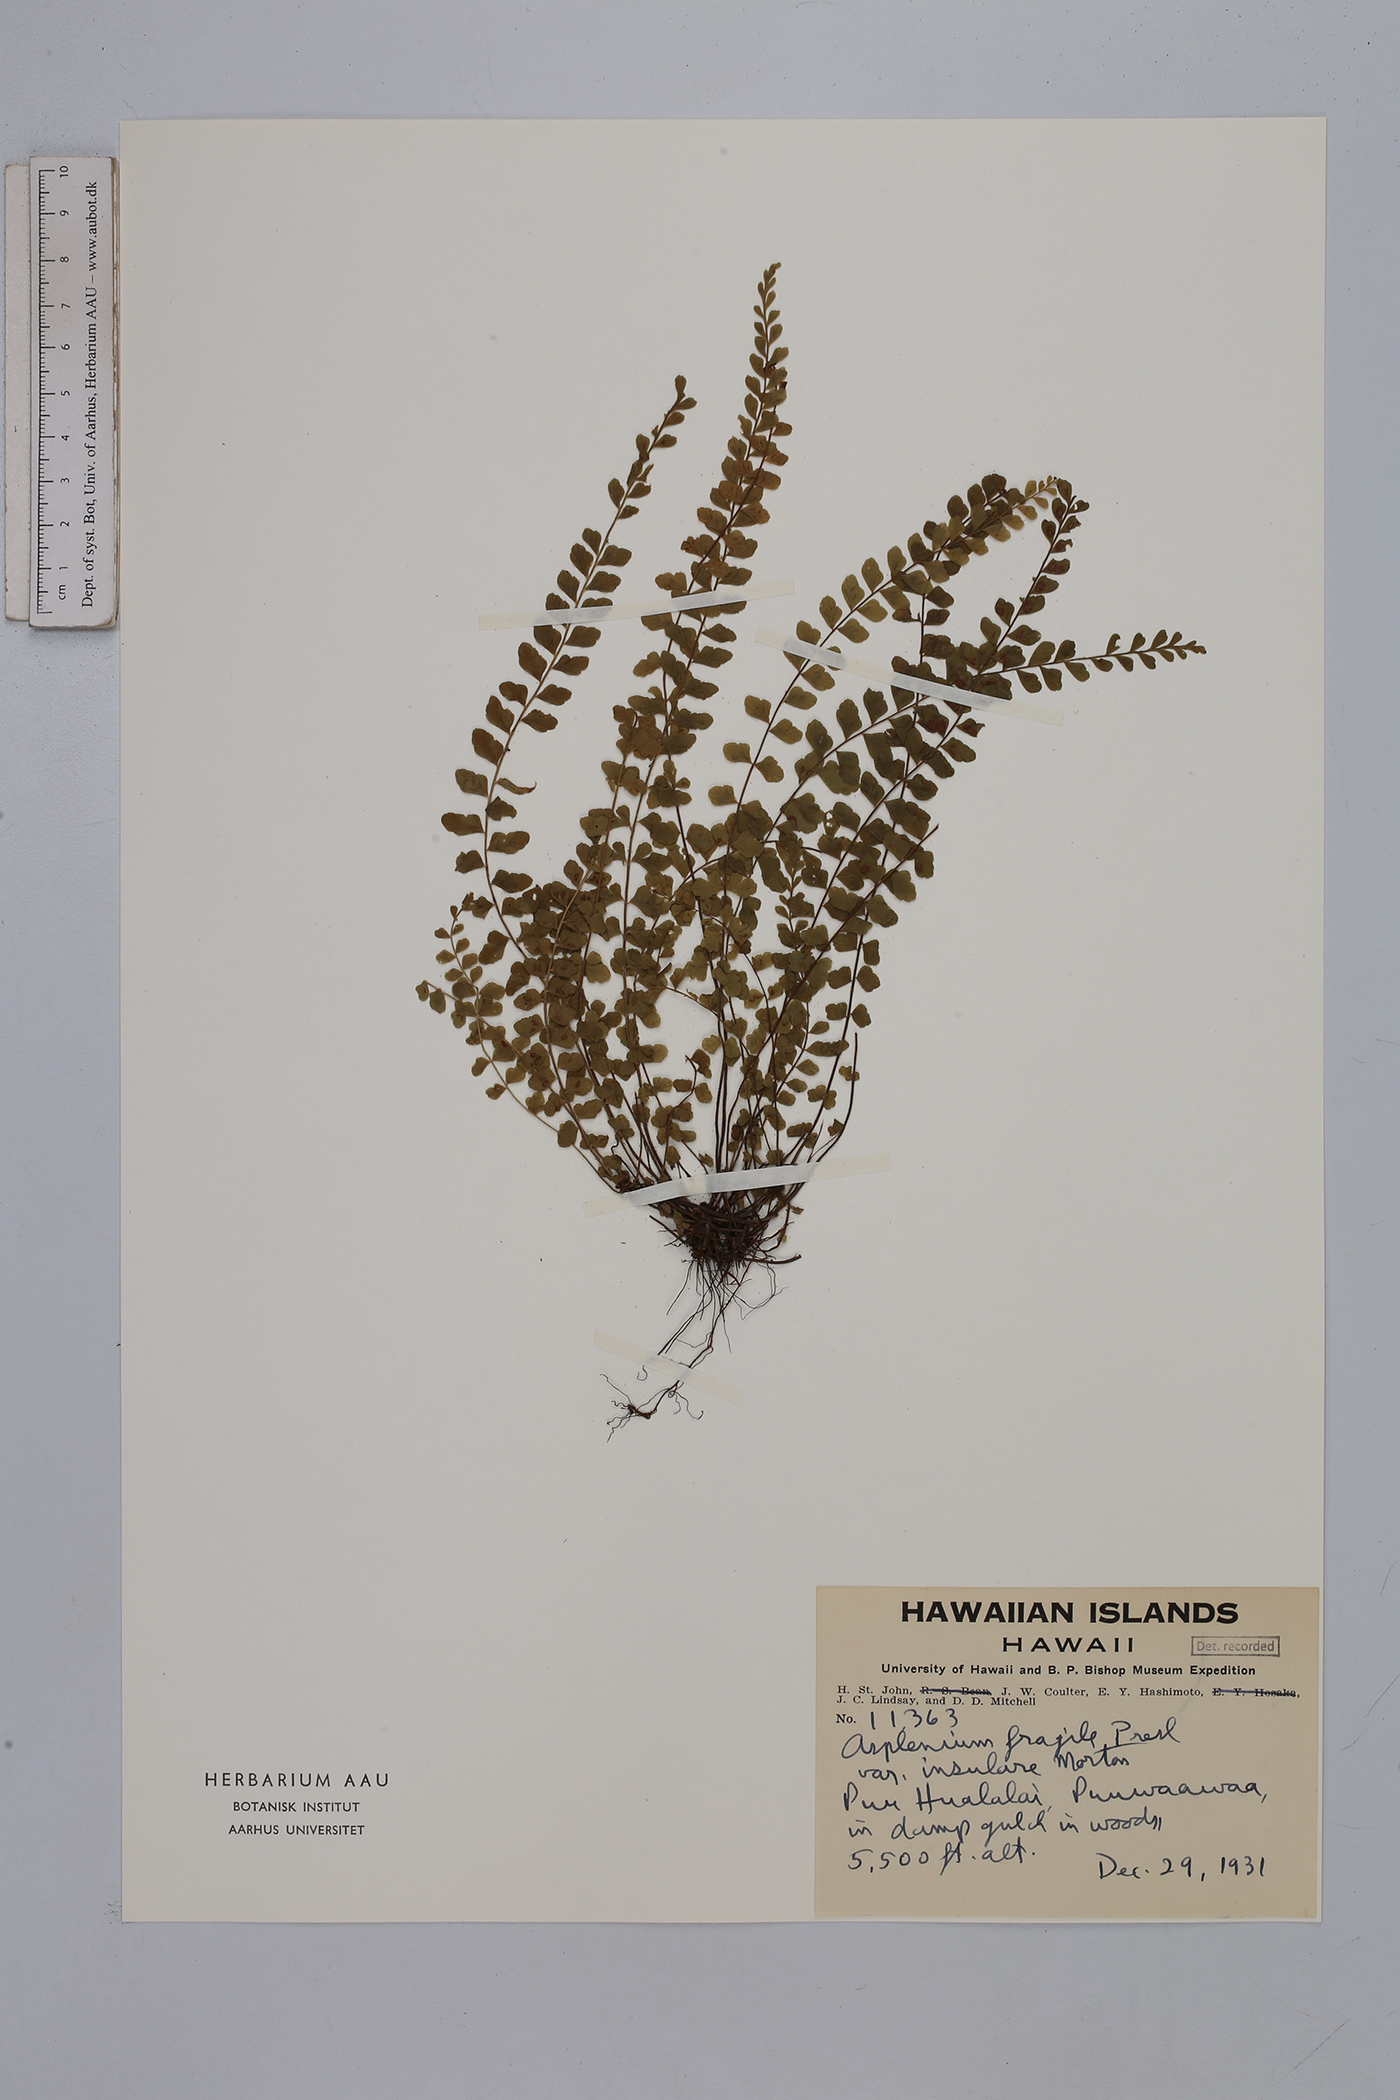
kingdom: Plantae
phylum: Tracheophyta
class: Polypodiopsida
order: Polypodiales
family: Aspleniaceae
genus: Asplenium
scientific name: Asplenium peruvianum
